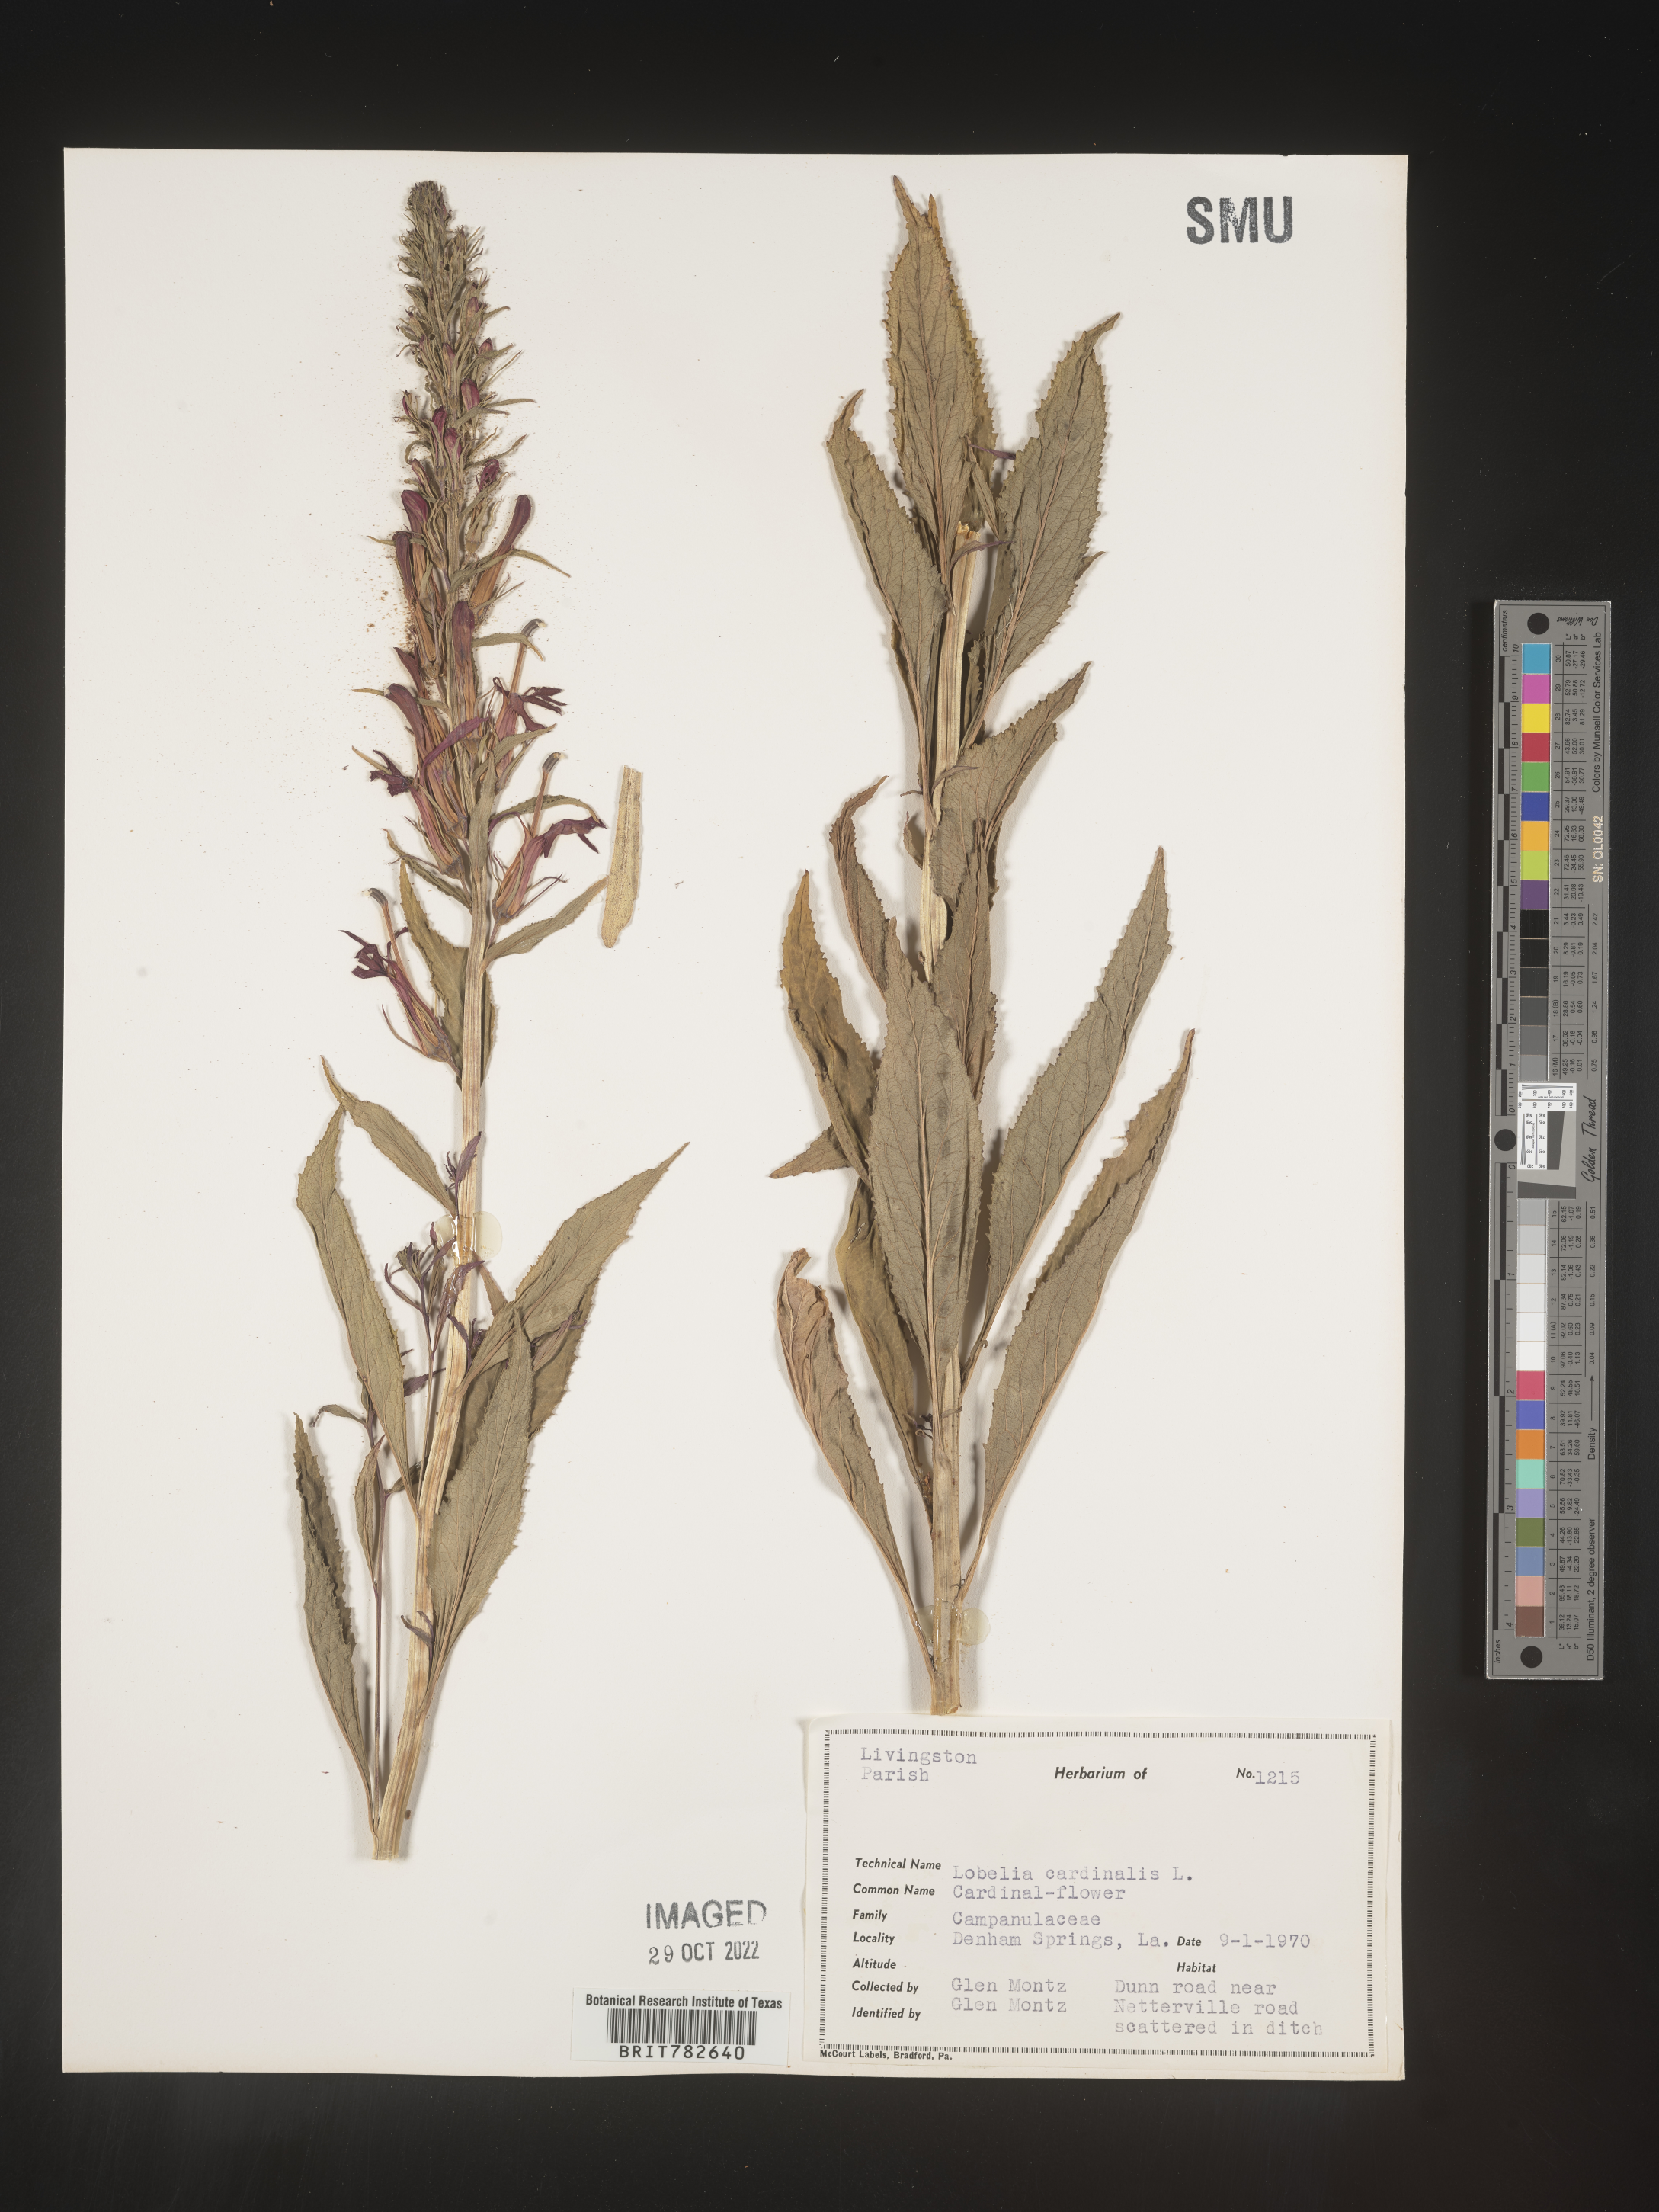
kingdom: Plantae
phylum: Tracheophyta
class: Magnoliopsida
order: Asterales
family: Campanulaceae
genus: Lobelia
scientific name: Lobelia cardinalis
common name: Cardinal flower
